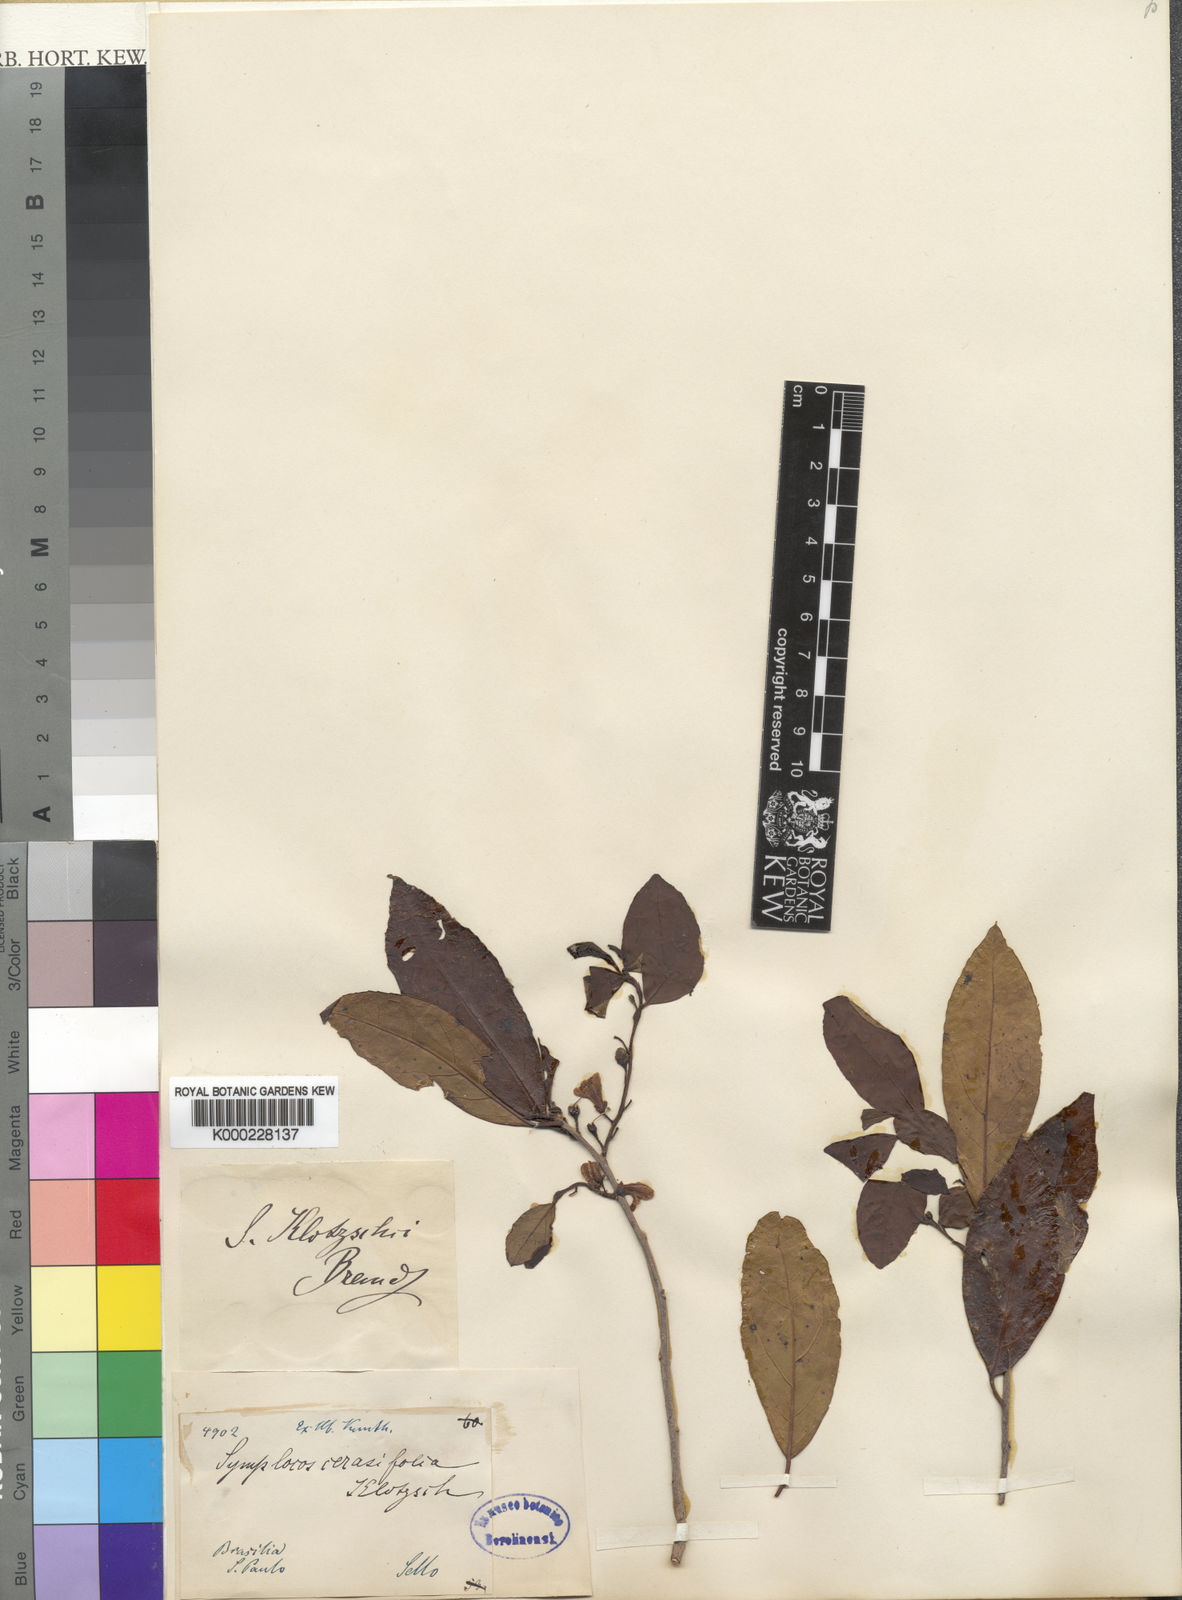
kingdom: Plantae
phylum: Tracheophyta
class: Magnoliopsida
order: Ericales
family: Symplocaceae
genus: Symplocos
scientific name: Symplocos uniflora
